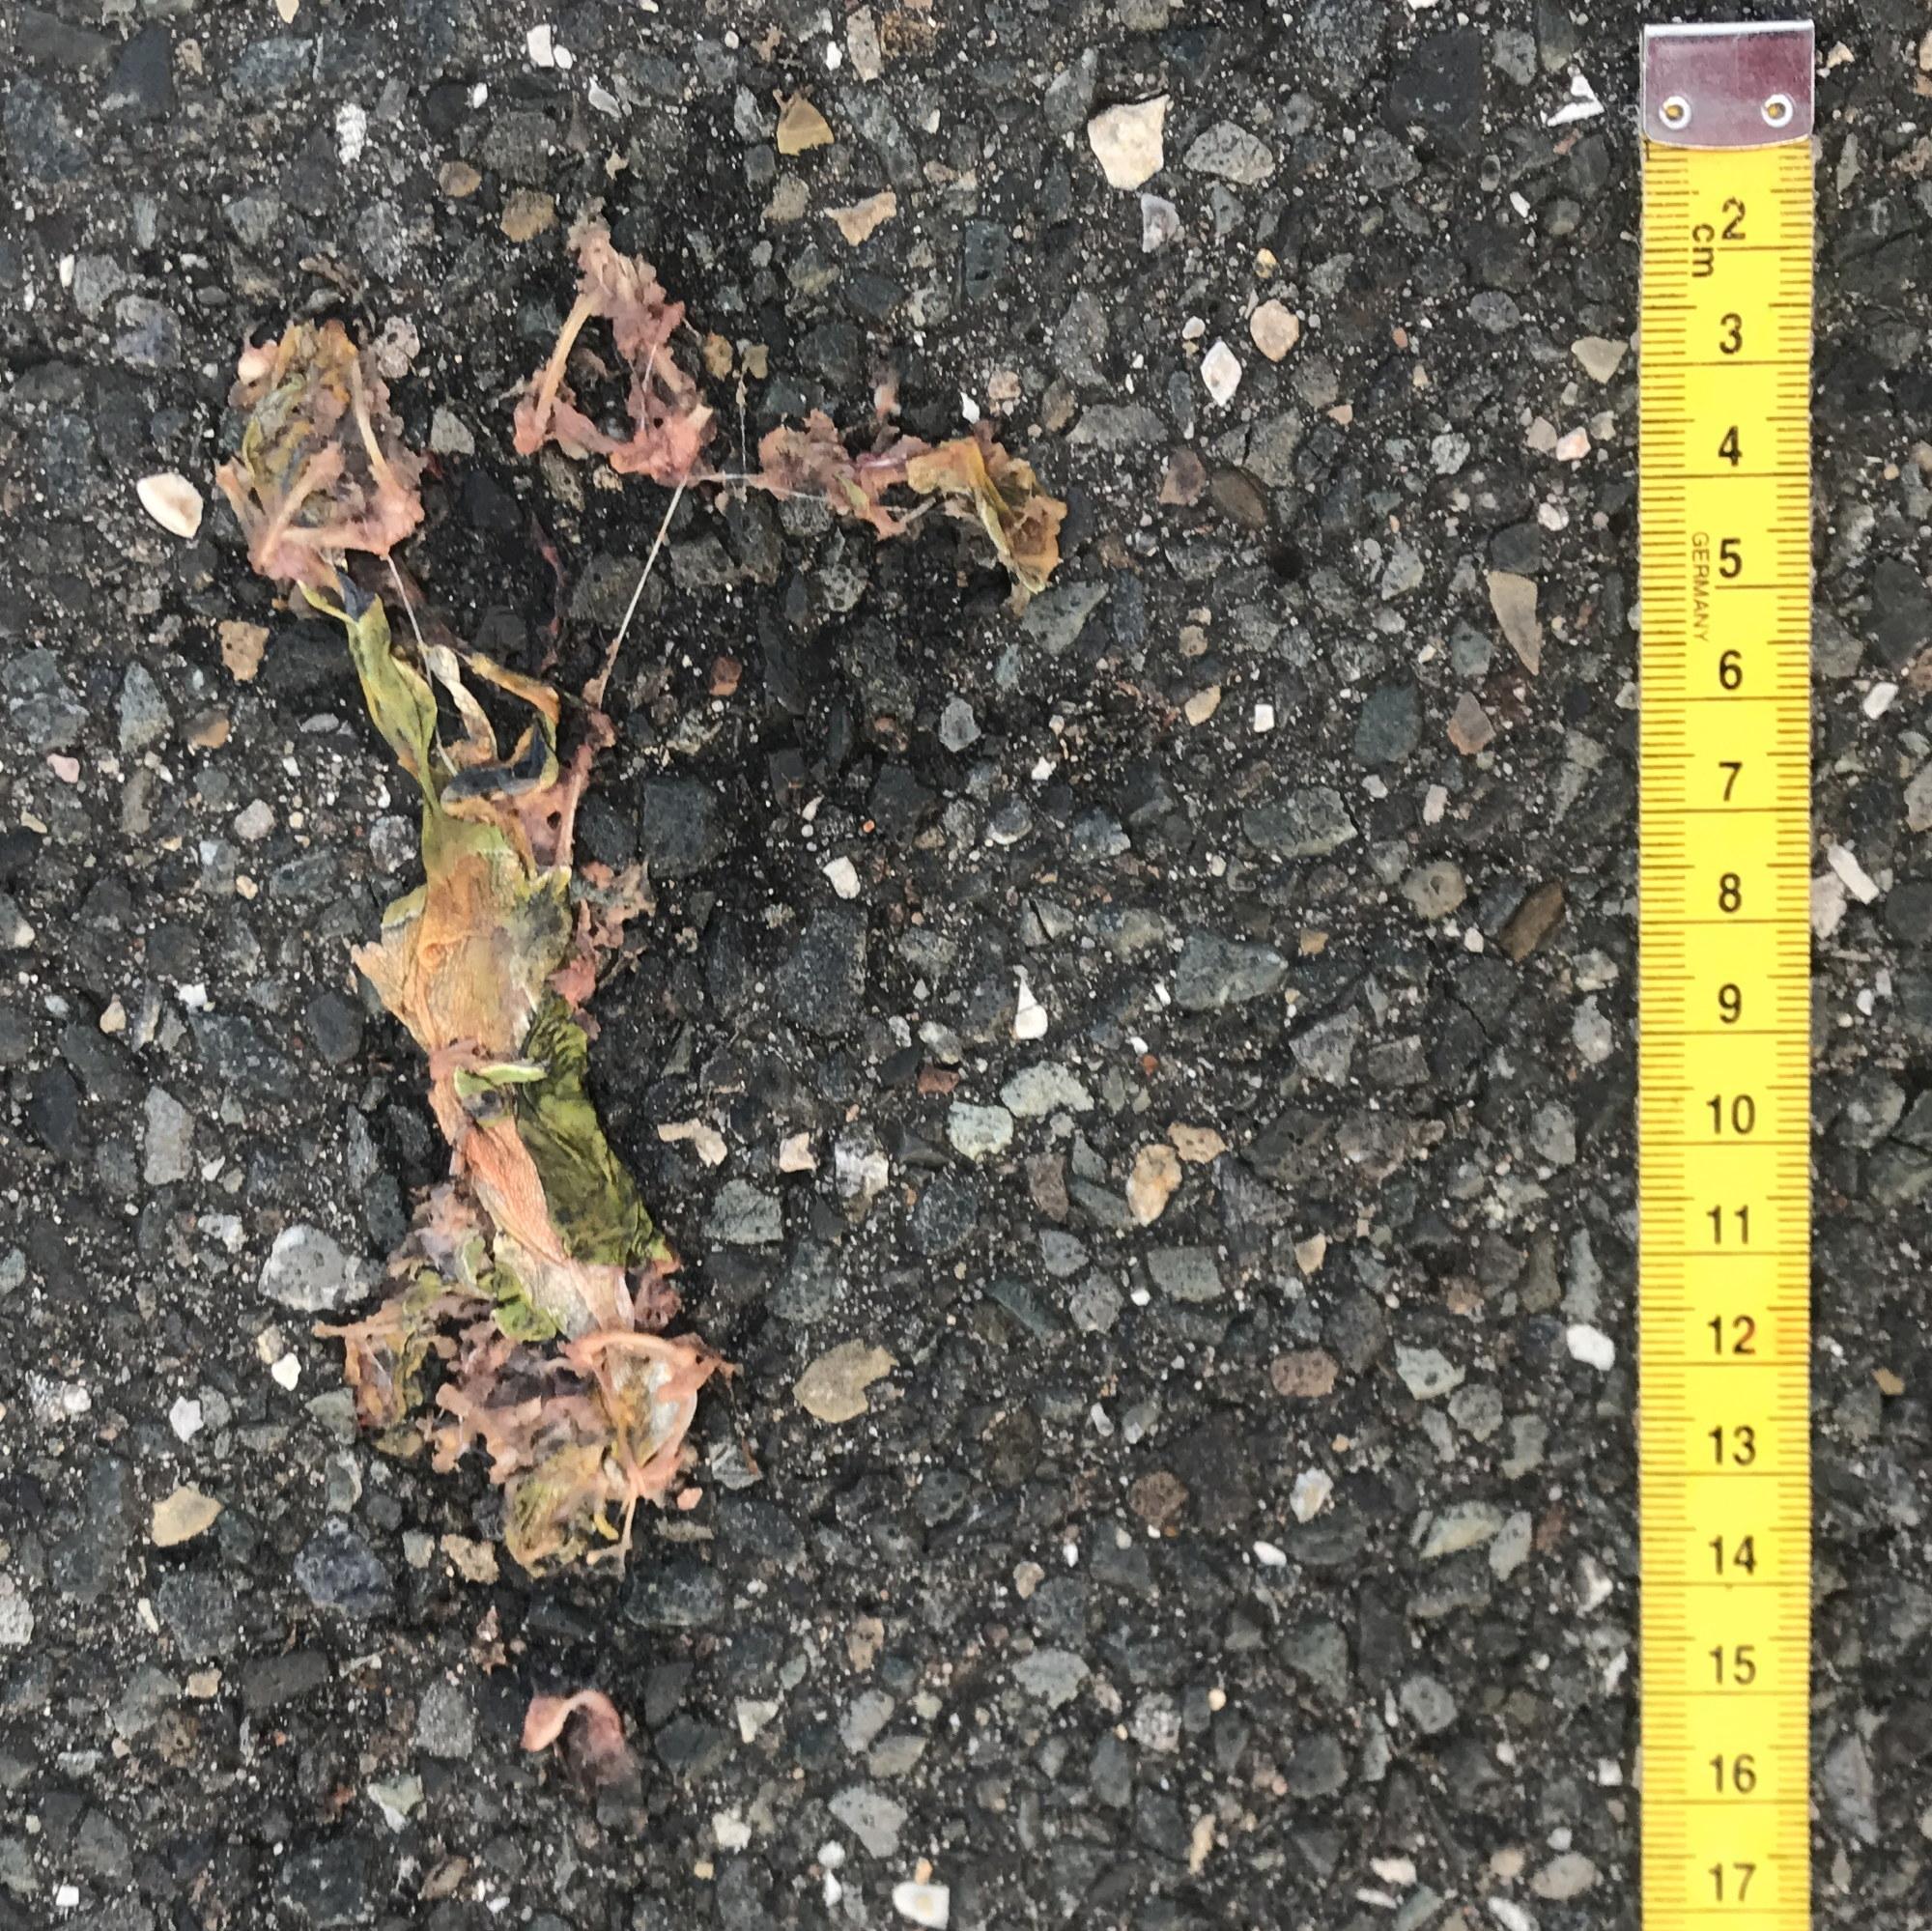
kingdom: Animalia
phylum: Chordata
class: Amphibia
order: Anura
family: Ranidae
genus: Pelophylax
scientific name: Pelophylax
